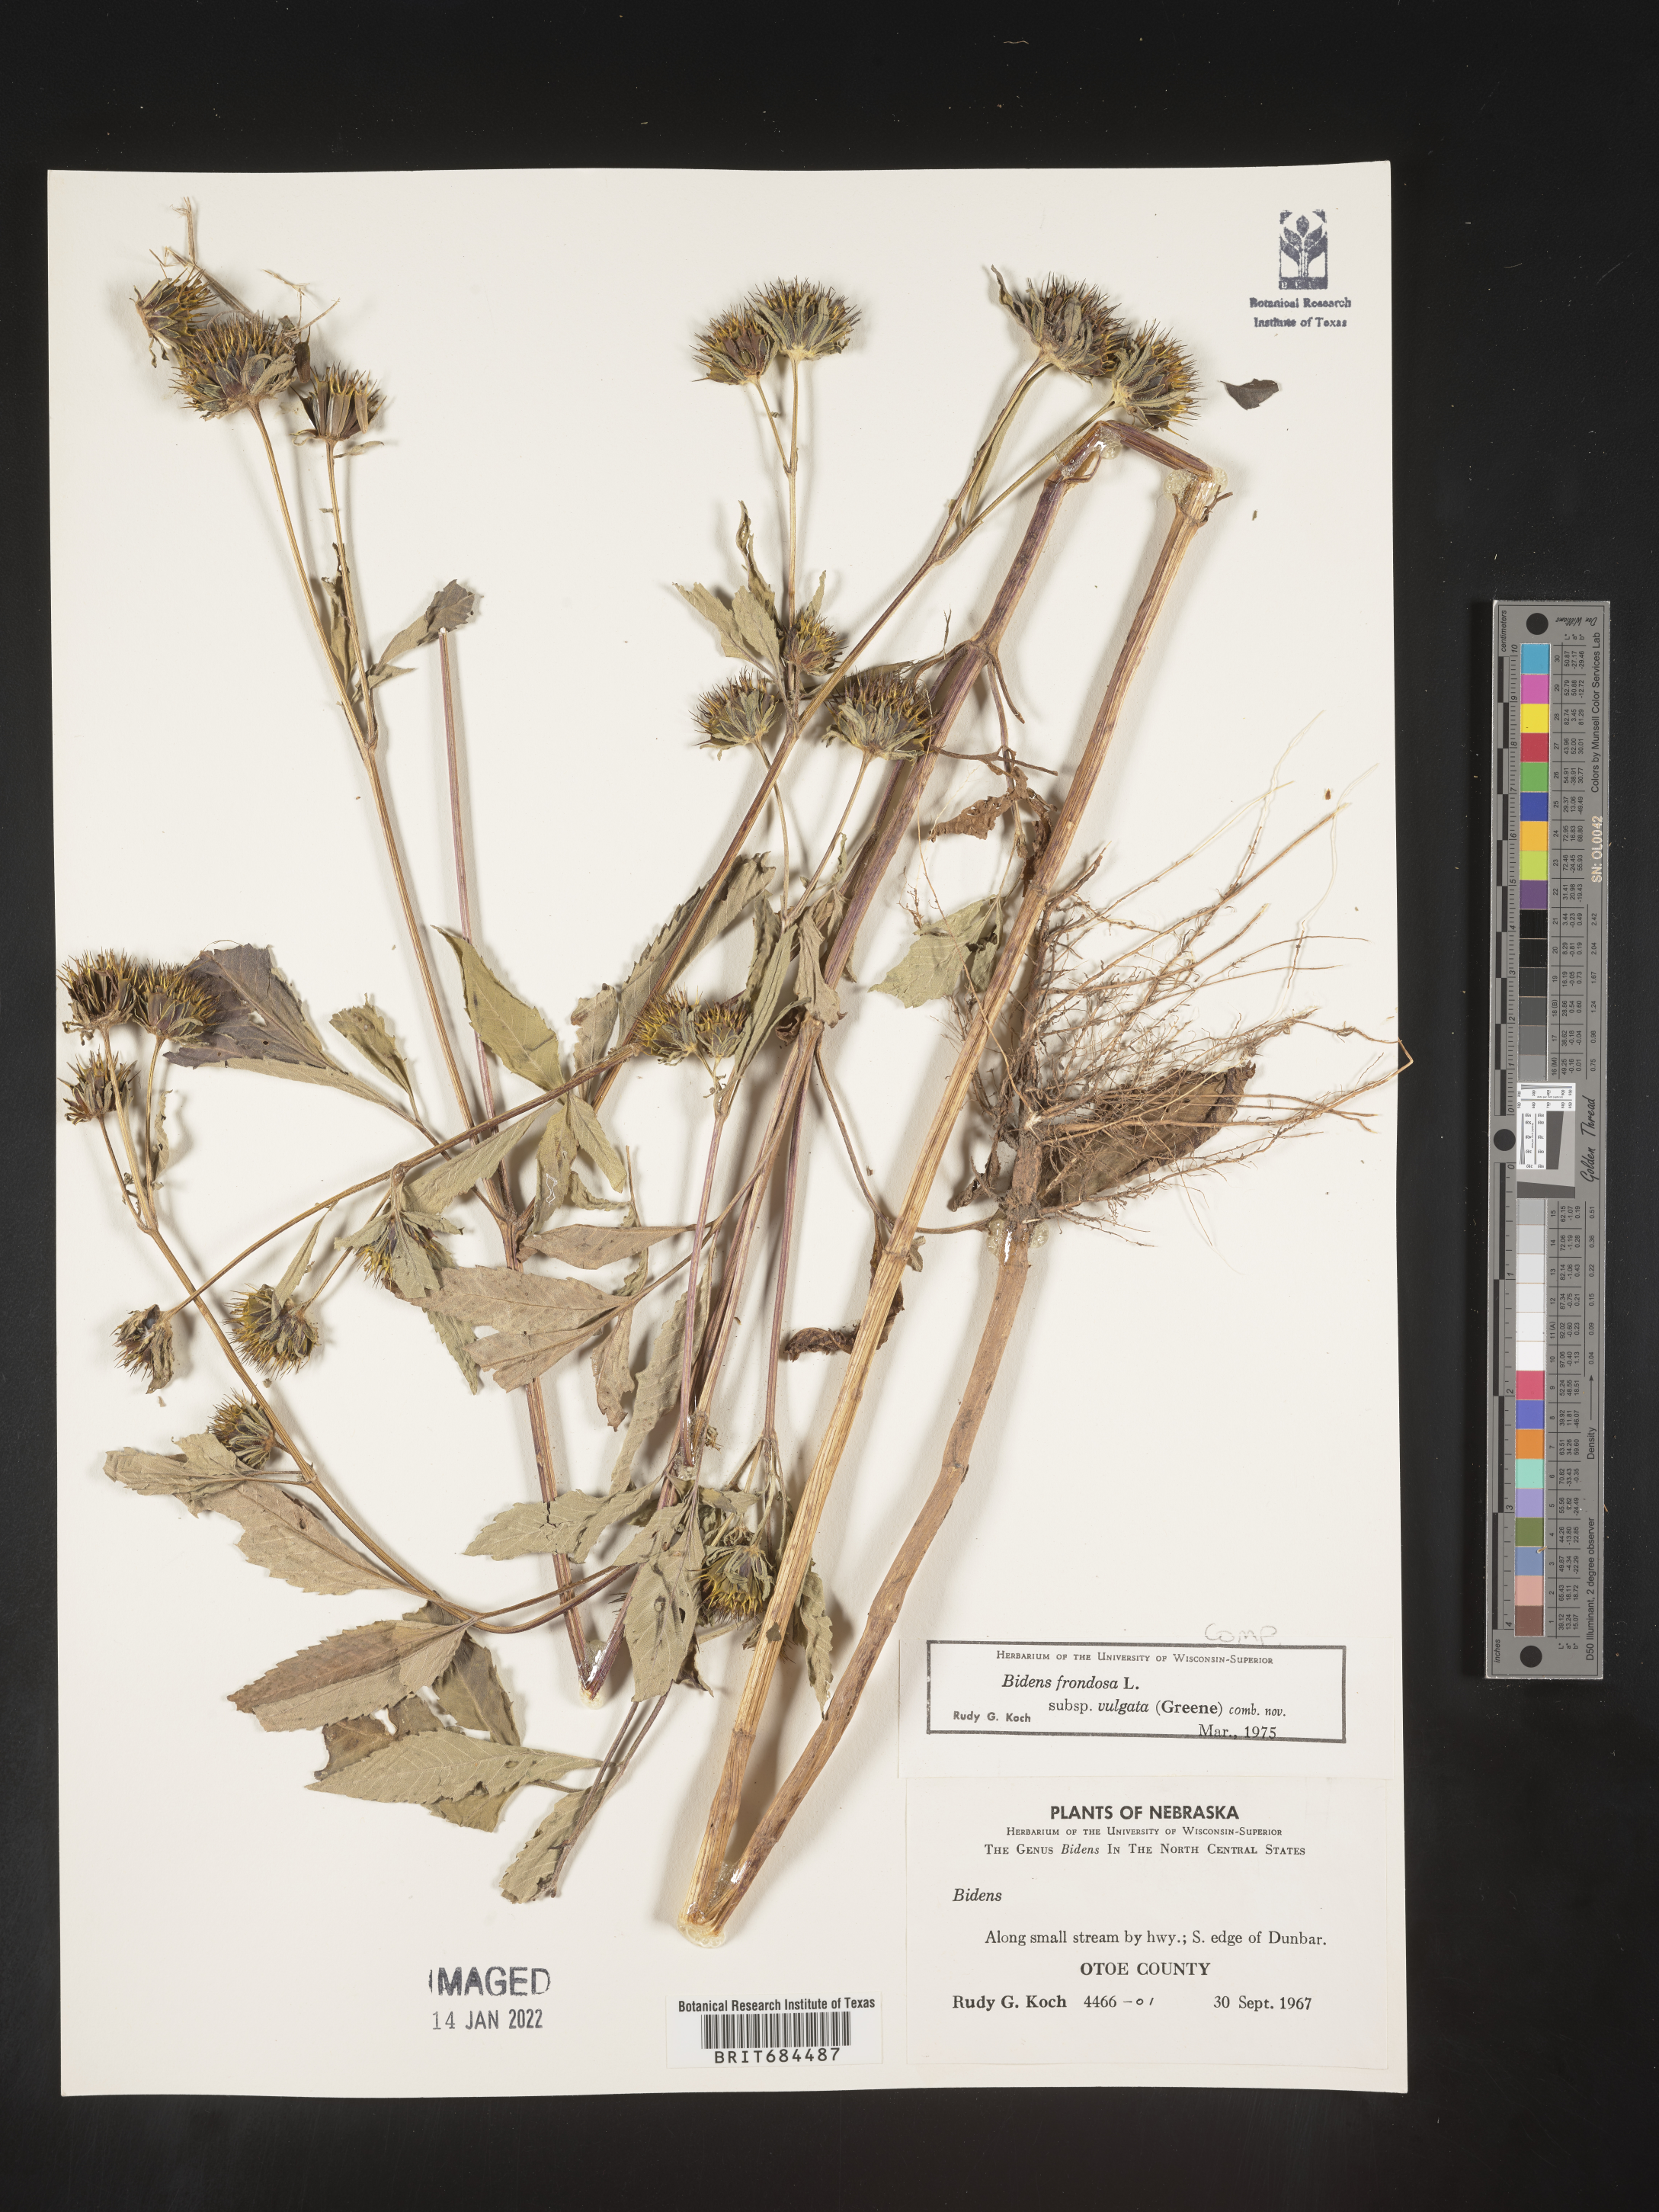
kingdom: Plantae
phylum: Tracheophyta
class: Magnoliopsida
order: Asterales
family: Asteraceae
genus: Bidens
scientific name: Bidens frondosa
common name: Beggarticks
